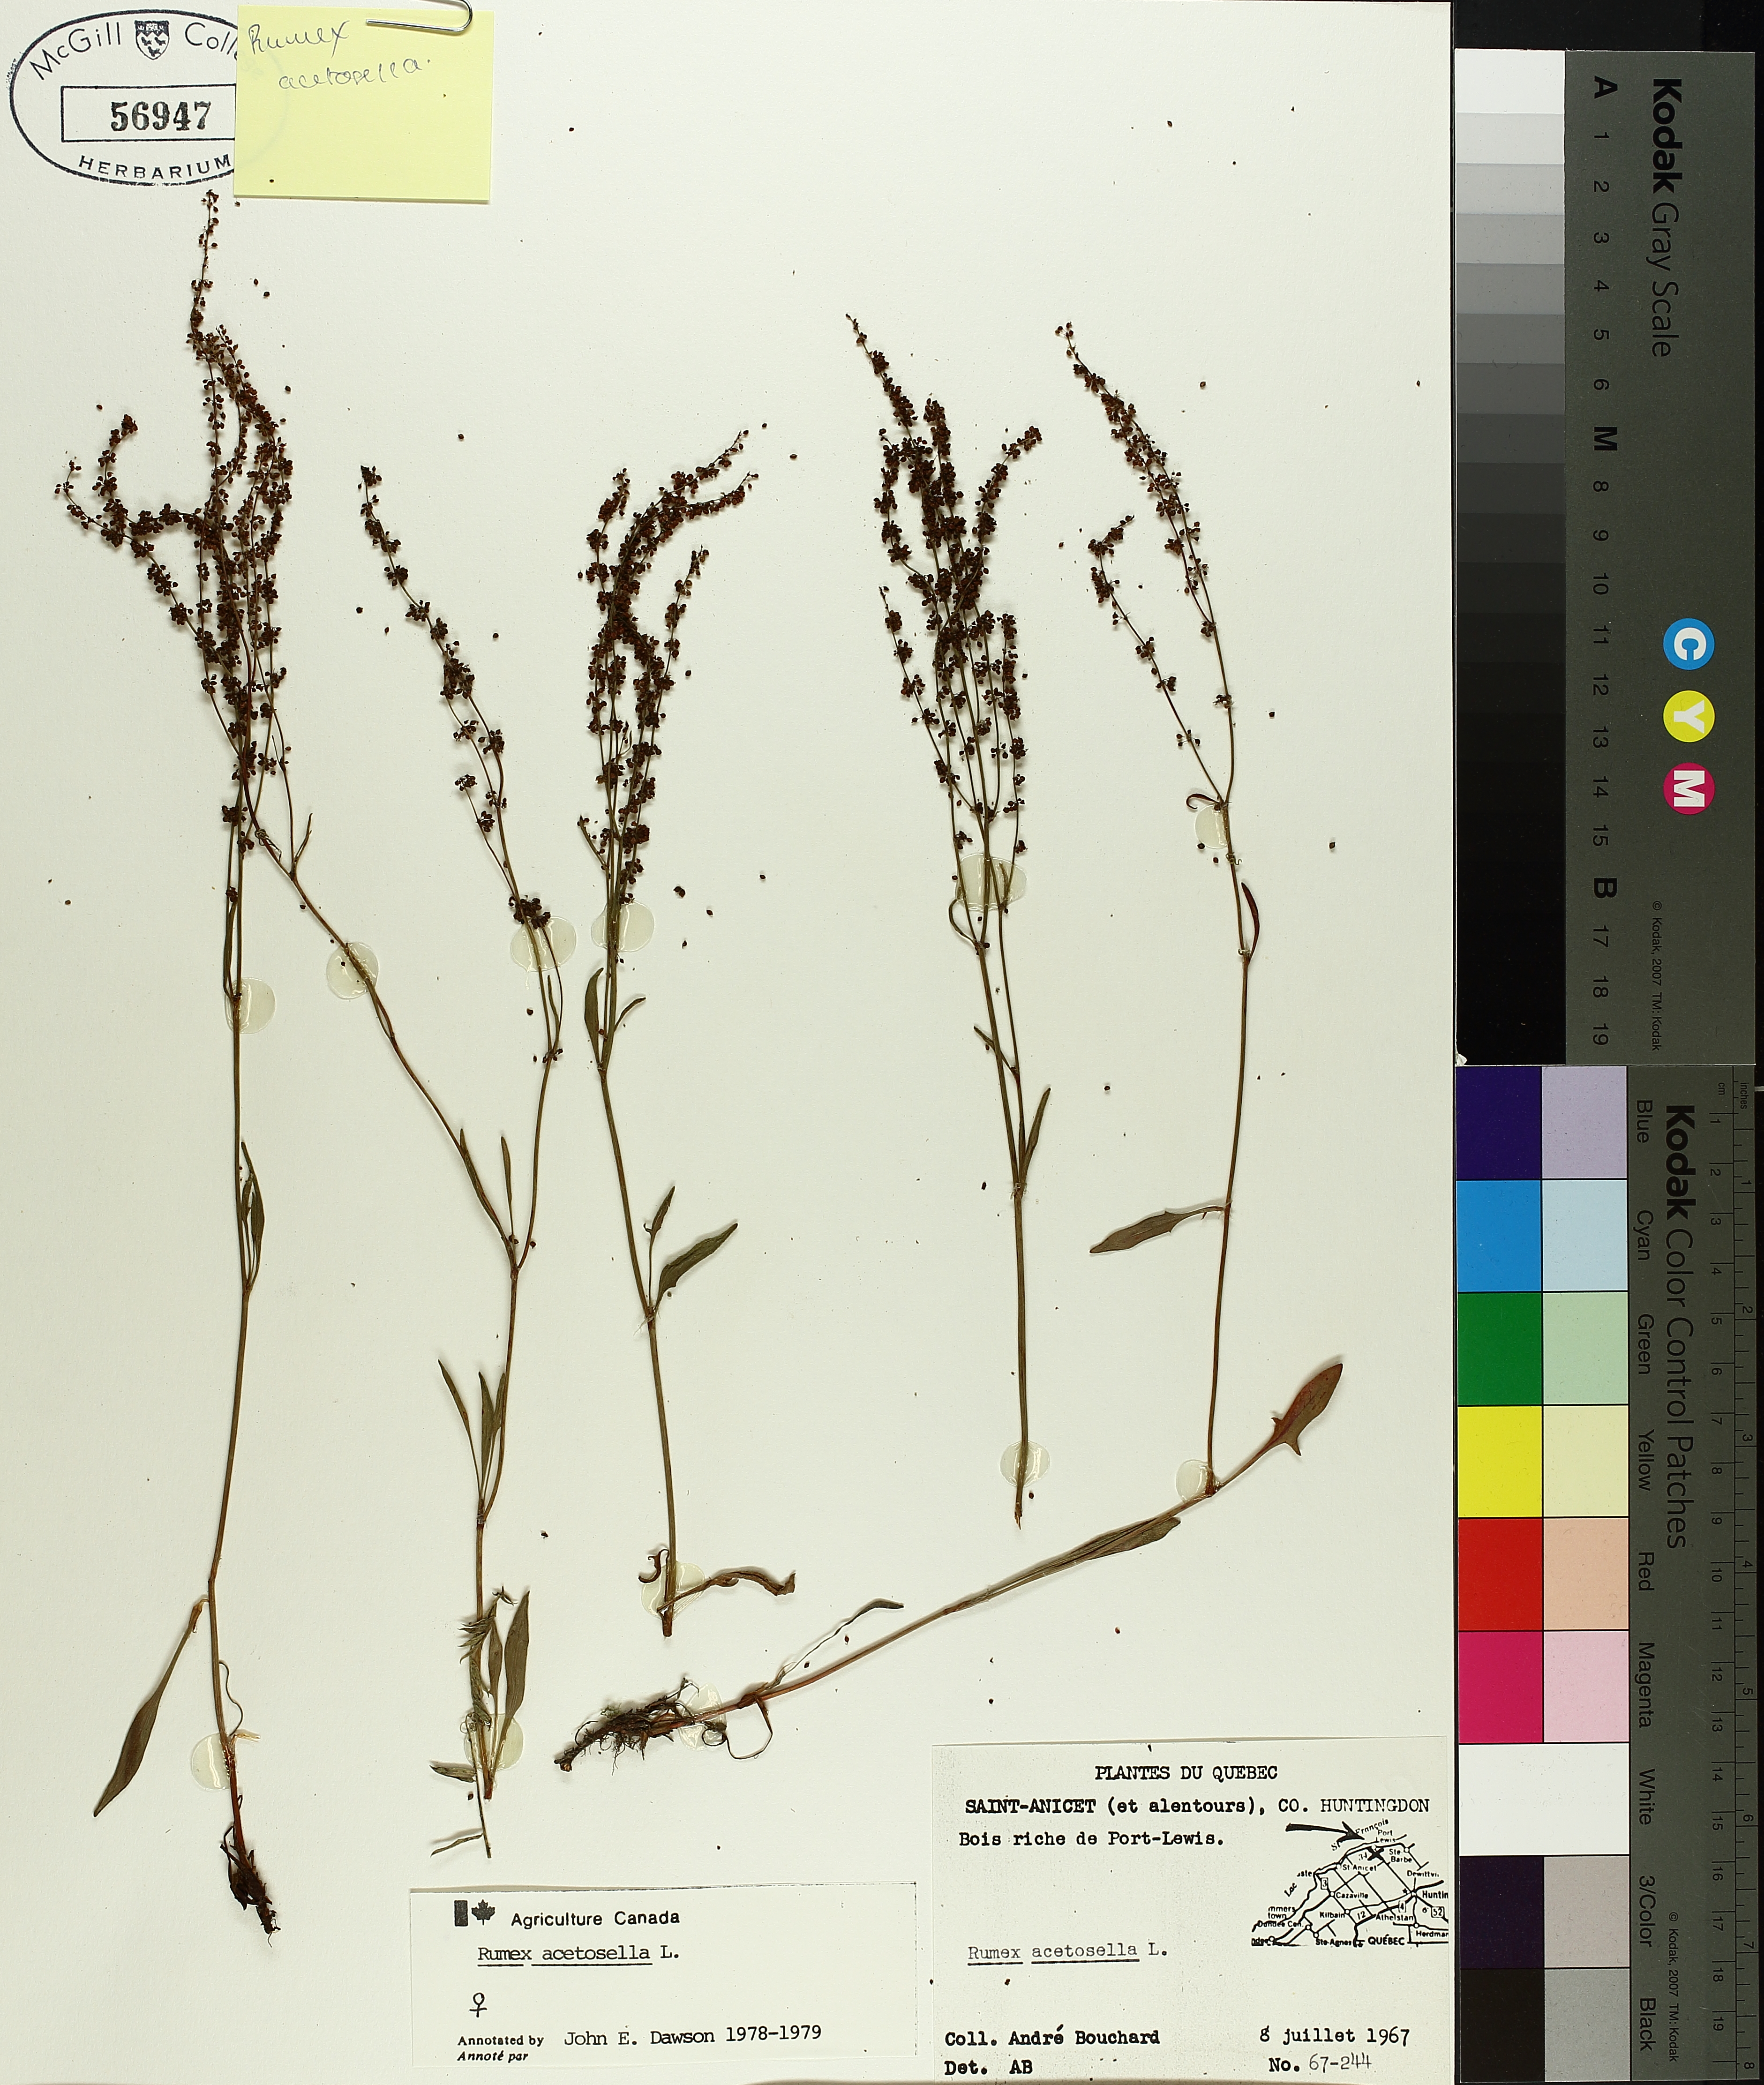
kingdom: Plantae
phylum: Tracheophyta
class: Magnoliopsida
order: Caryophyllales
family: Polygonaceae
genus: Rumex
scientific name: Rumex acetosella
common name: Common sheep sorrel
